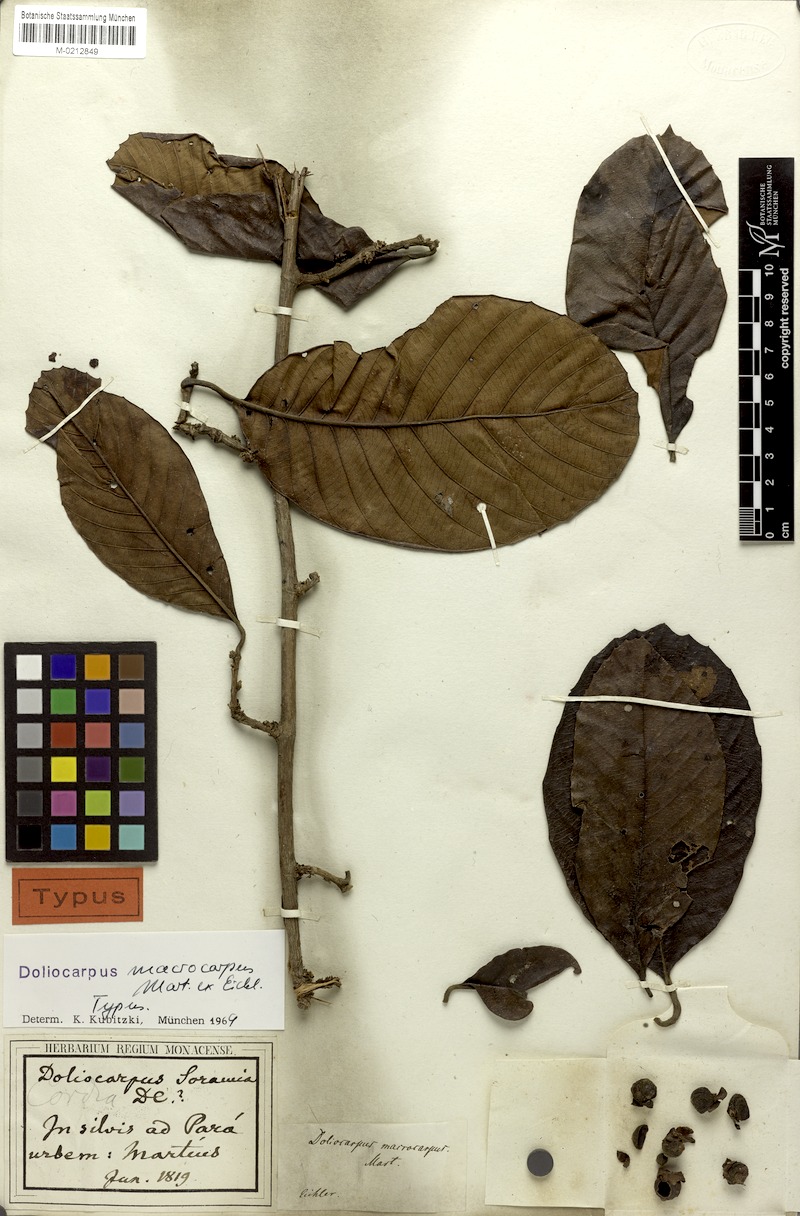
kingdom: Plantae
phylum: Tracheophyta
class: Magnoliopsida
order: Dilleniales
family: Dilleniaceae
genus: Doliocarpus
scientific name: Doliocarpus macrocarpus
